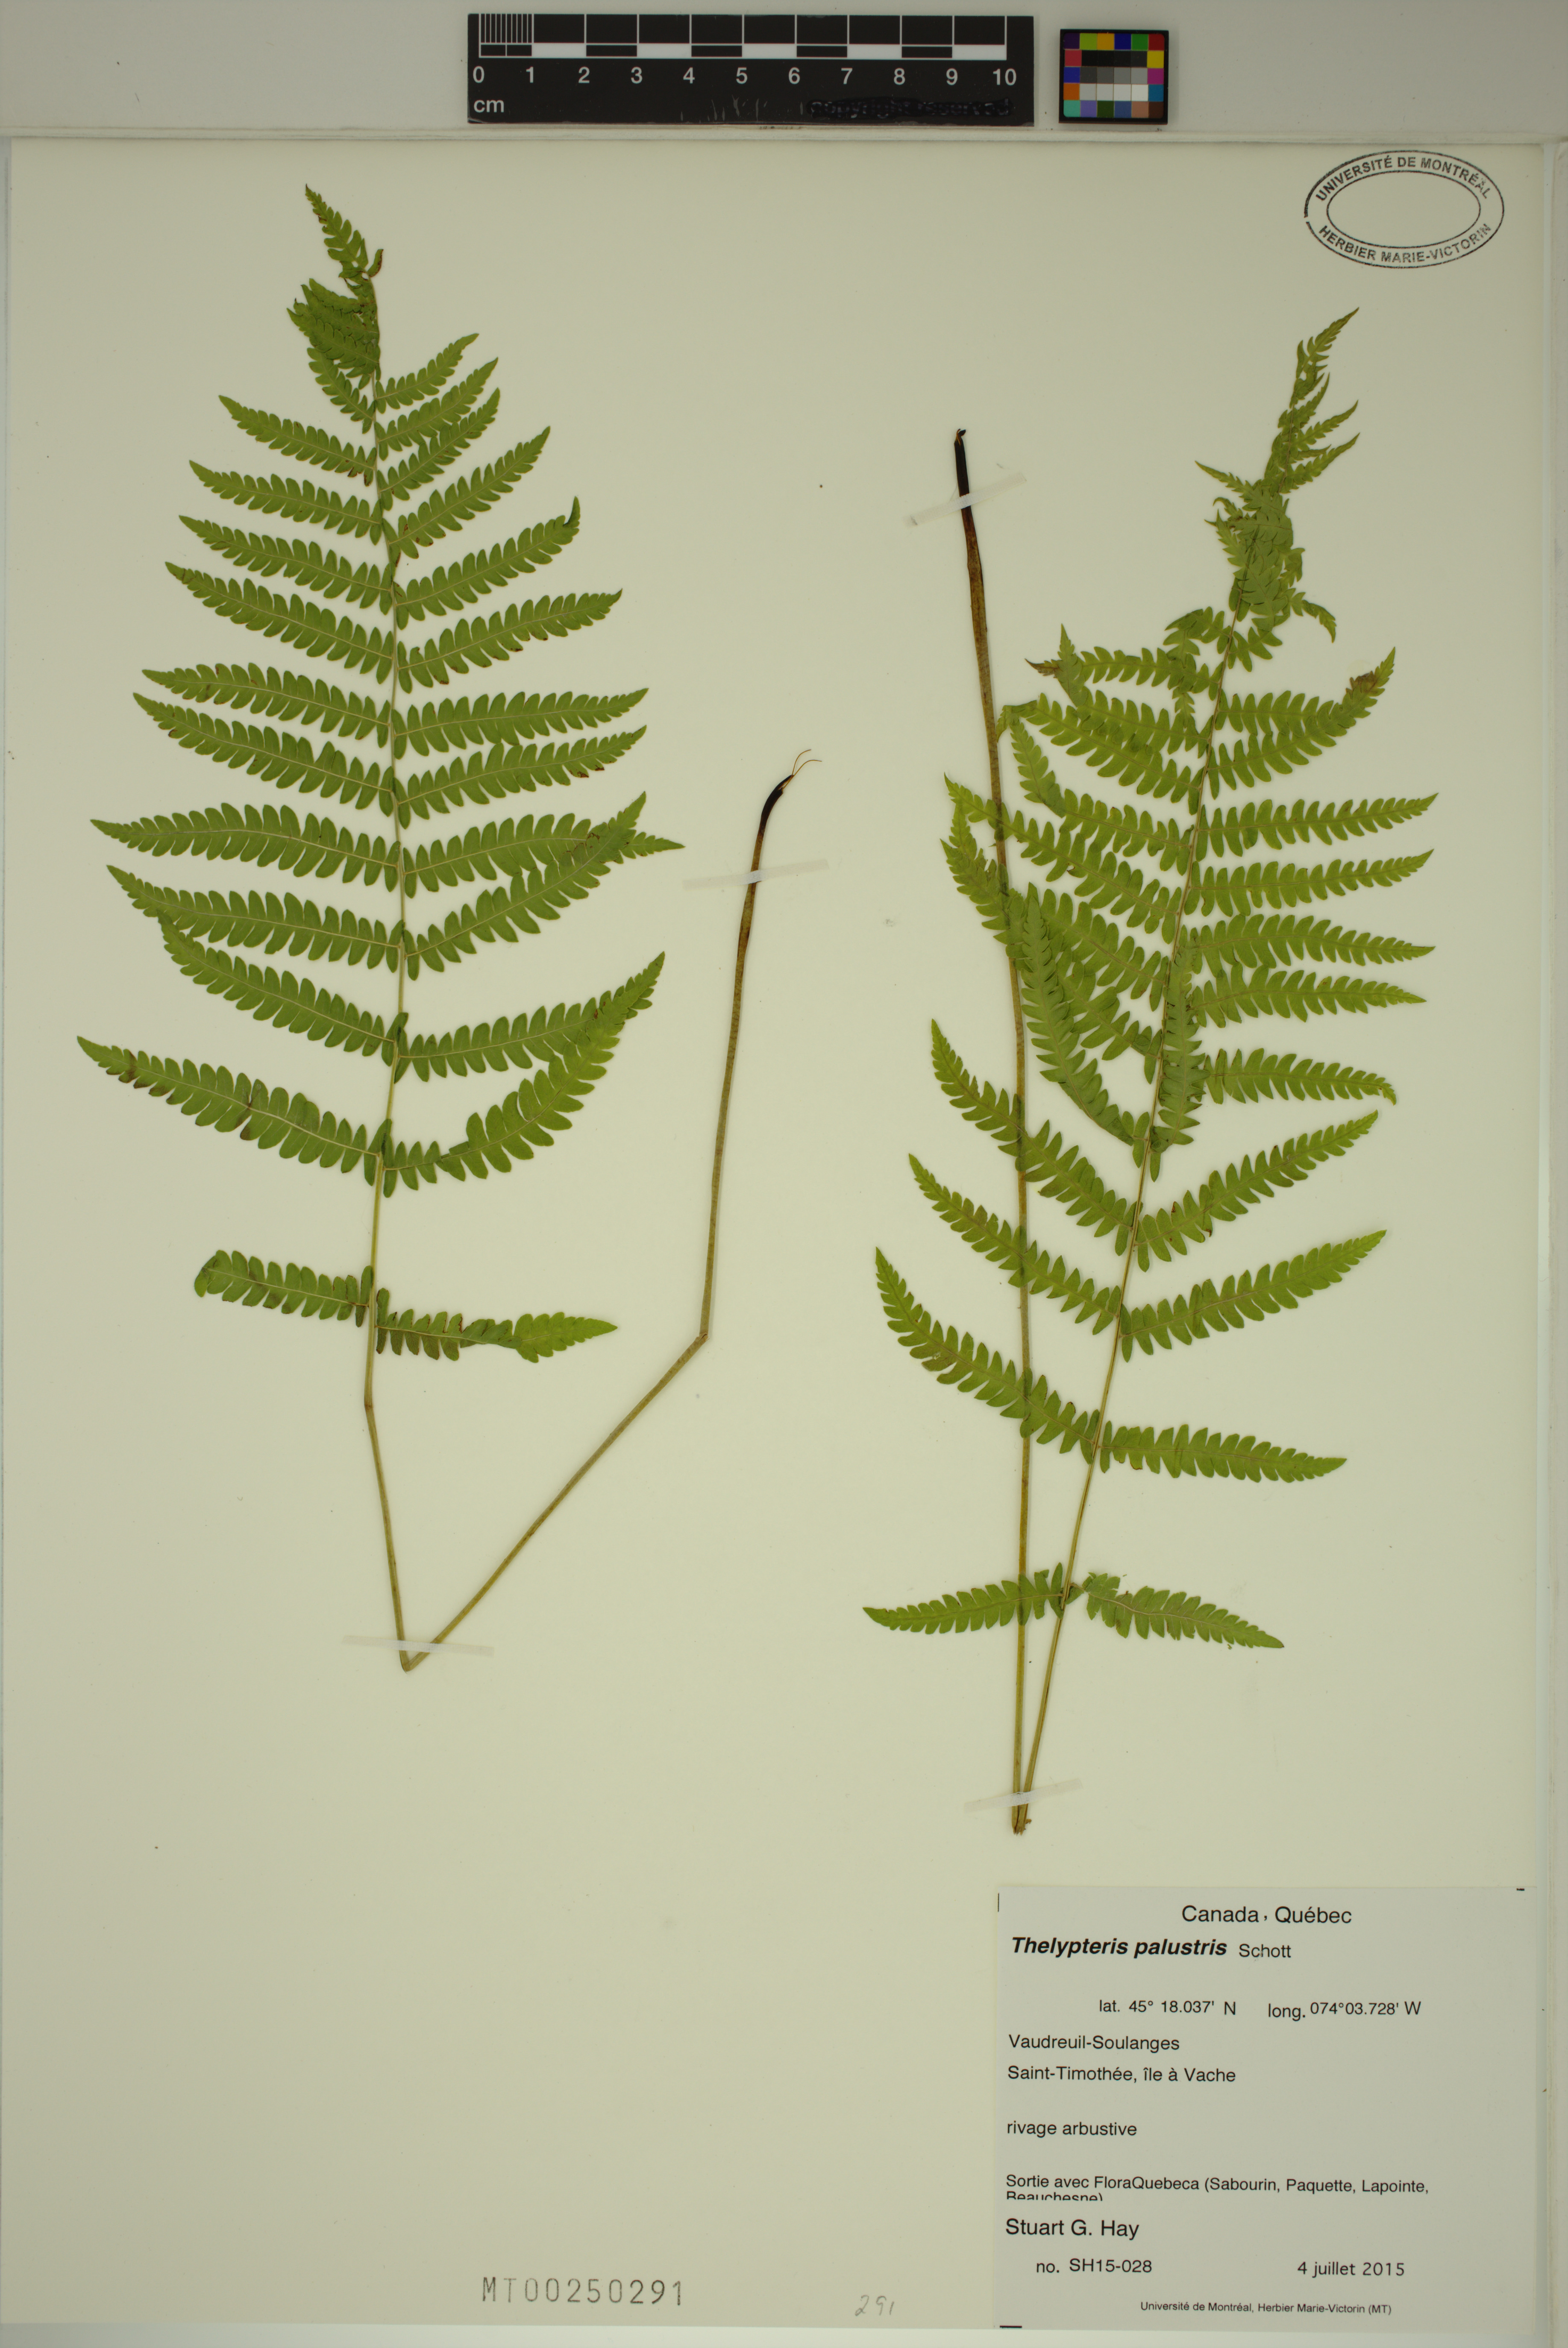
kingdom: Plantae
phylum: Tracheophyta
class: Polypodiopsida
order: Polypodiales
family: Thelypteridaceae
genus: Thelypteris
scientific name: Thelypteris palustris
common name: Marsh fern
